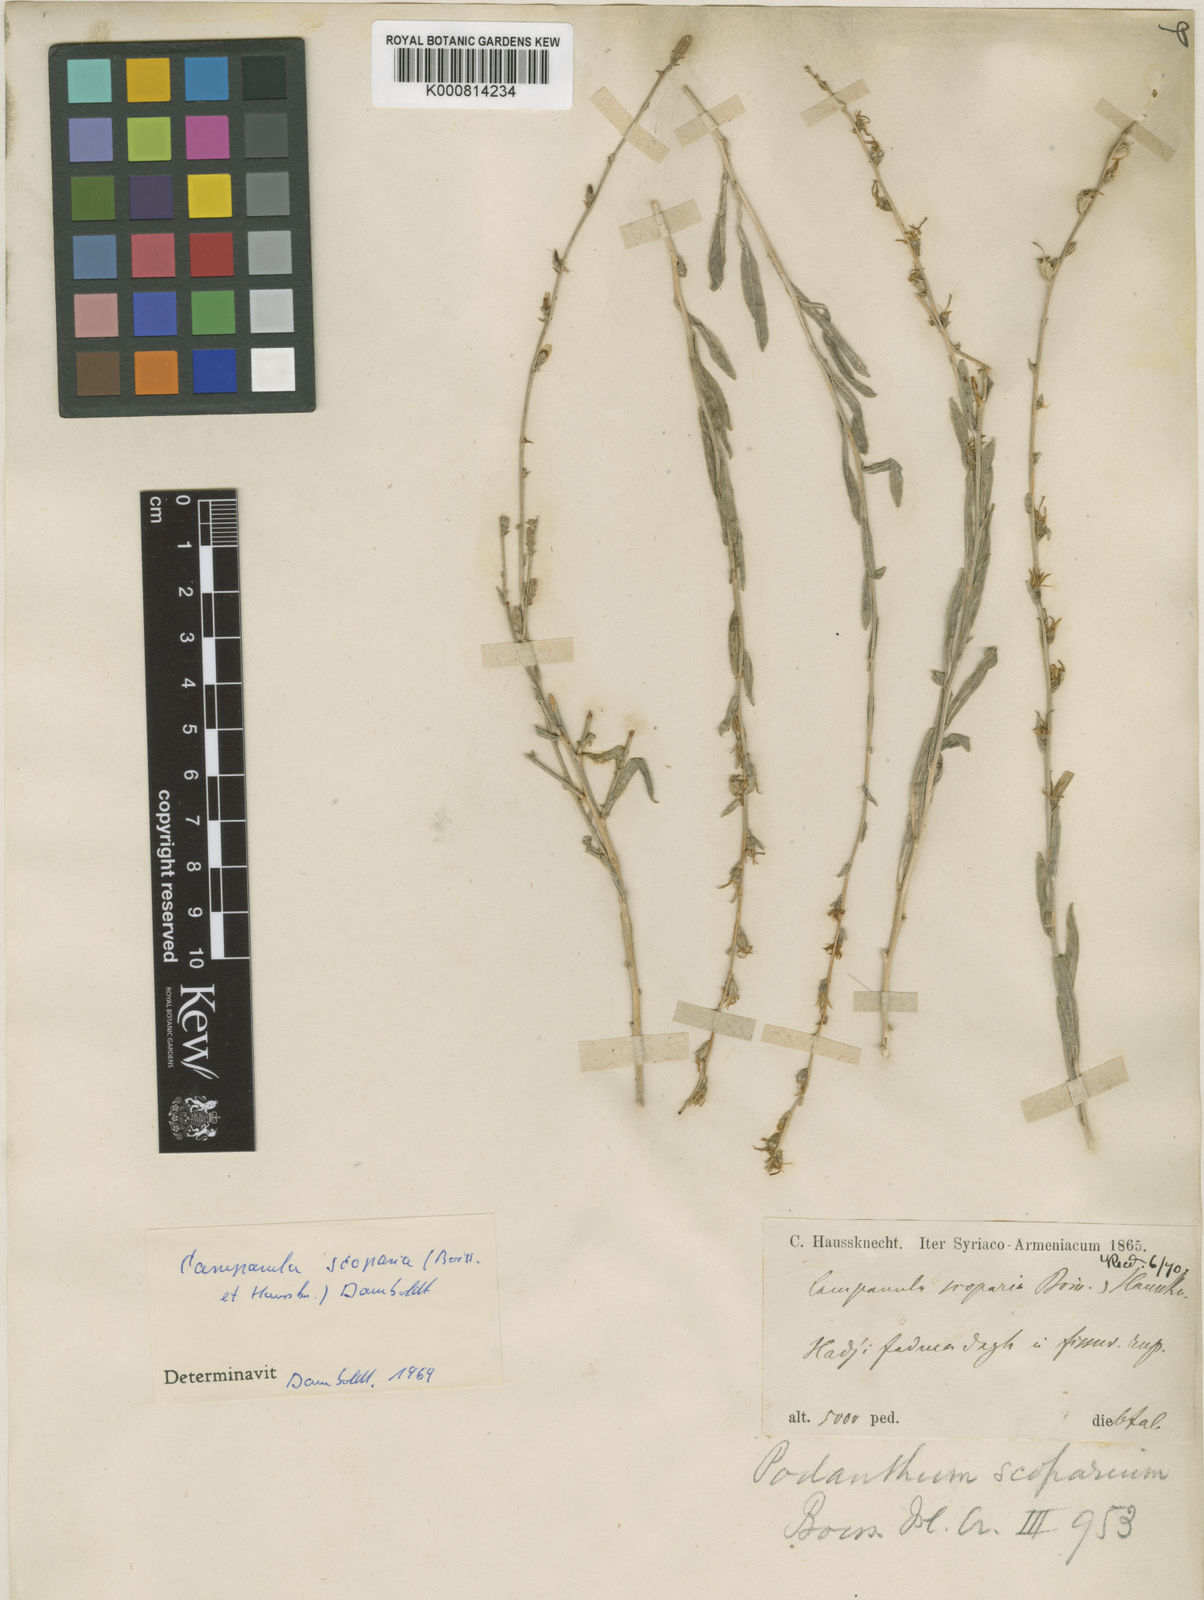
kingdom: Plantae
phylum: Tracheophyta
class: Magnoliopsida
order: Asterales
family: Campanulaceae
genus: Phyteuma
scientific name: Phyteuma
